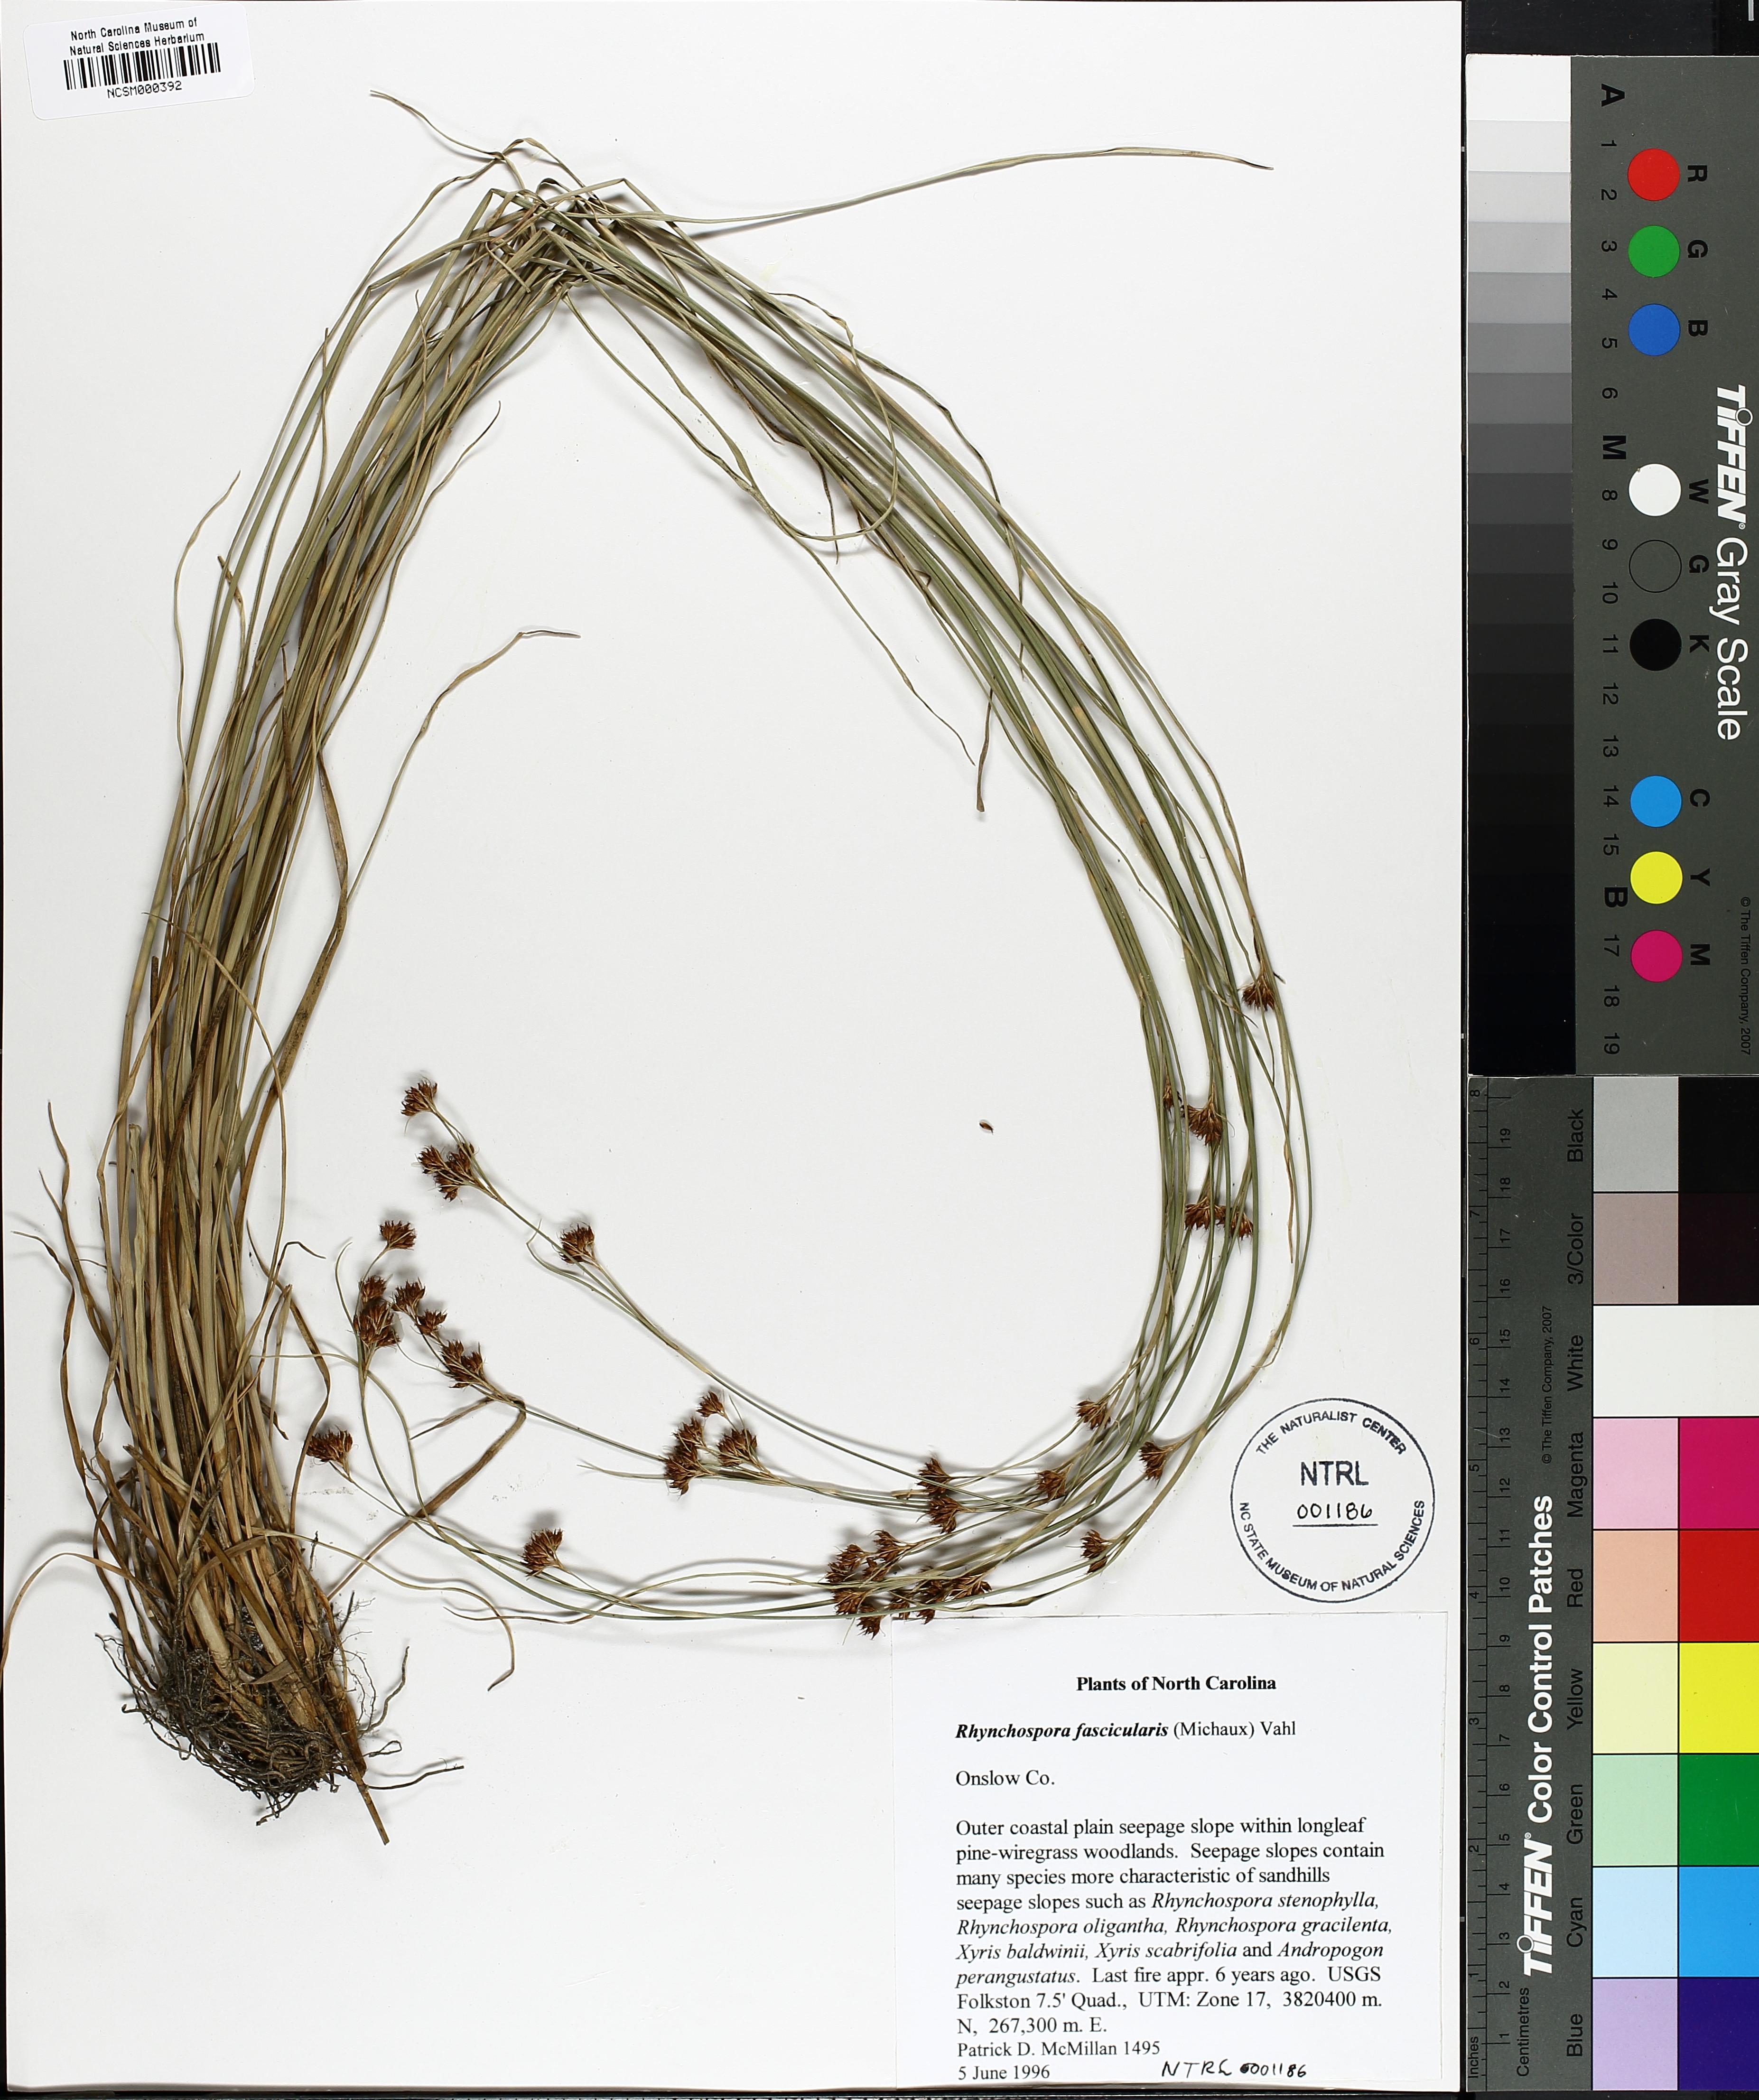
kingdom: Plantae
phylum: Tracheophyta
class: Liliopsida
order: Poales
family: Cyperaceae
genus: Rhynchospora
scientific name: Rhynchospora fascicularis
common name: Fascicled beak sedge
